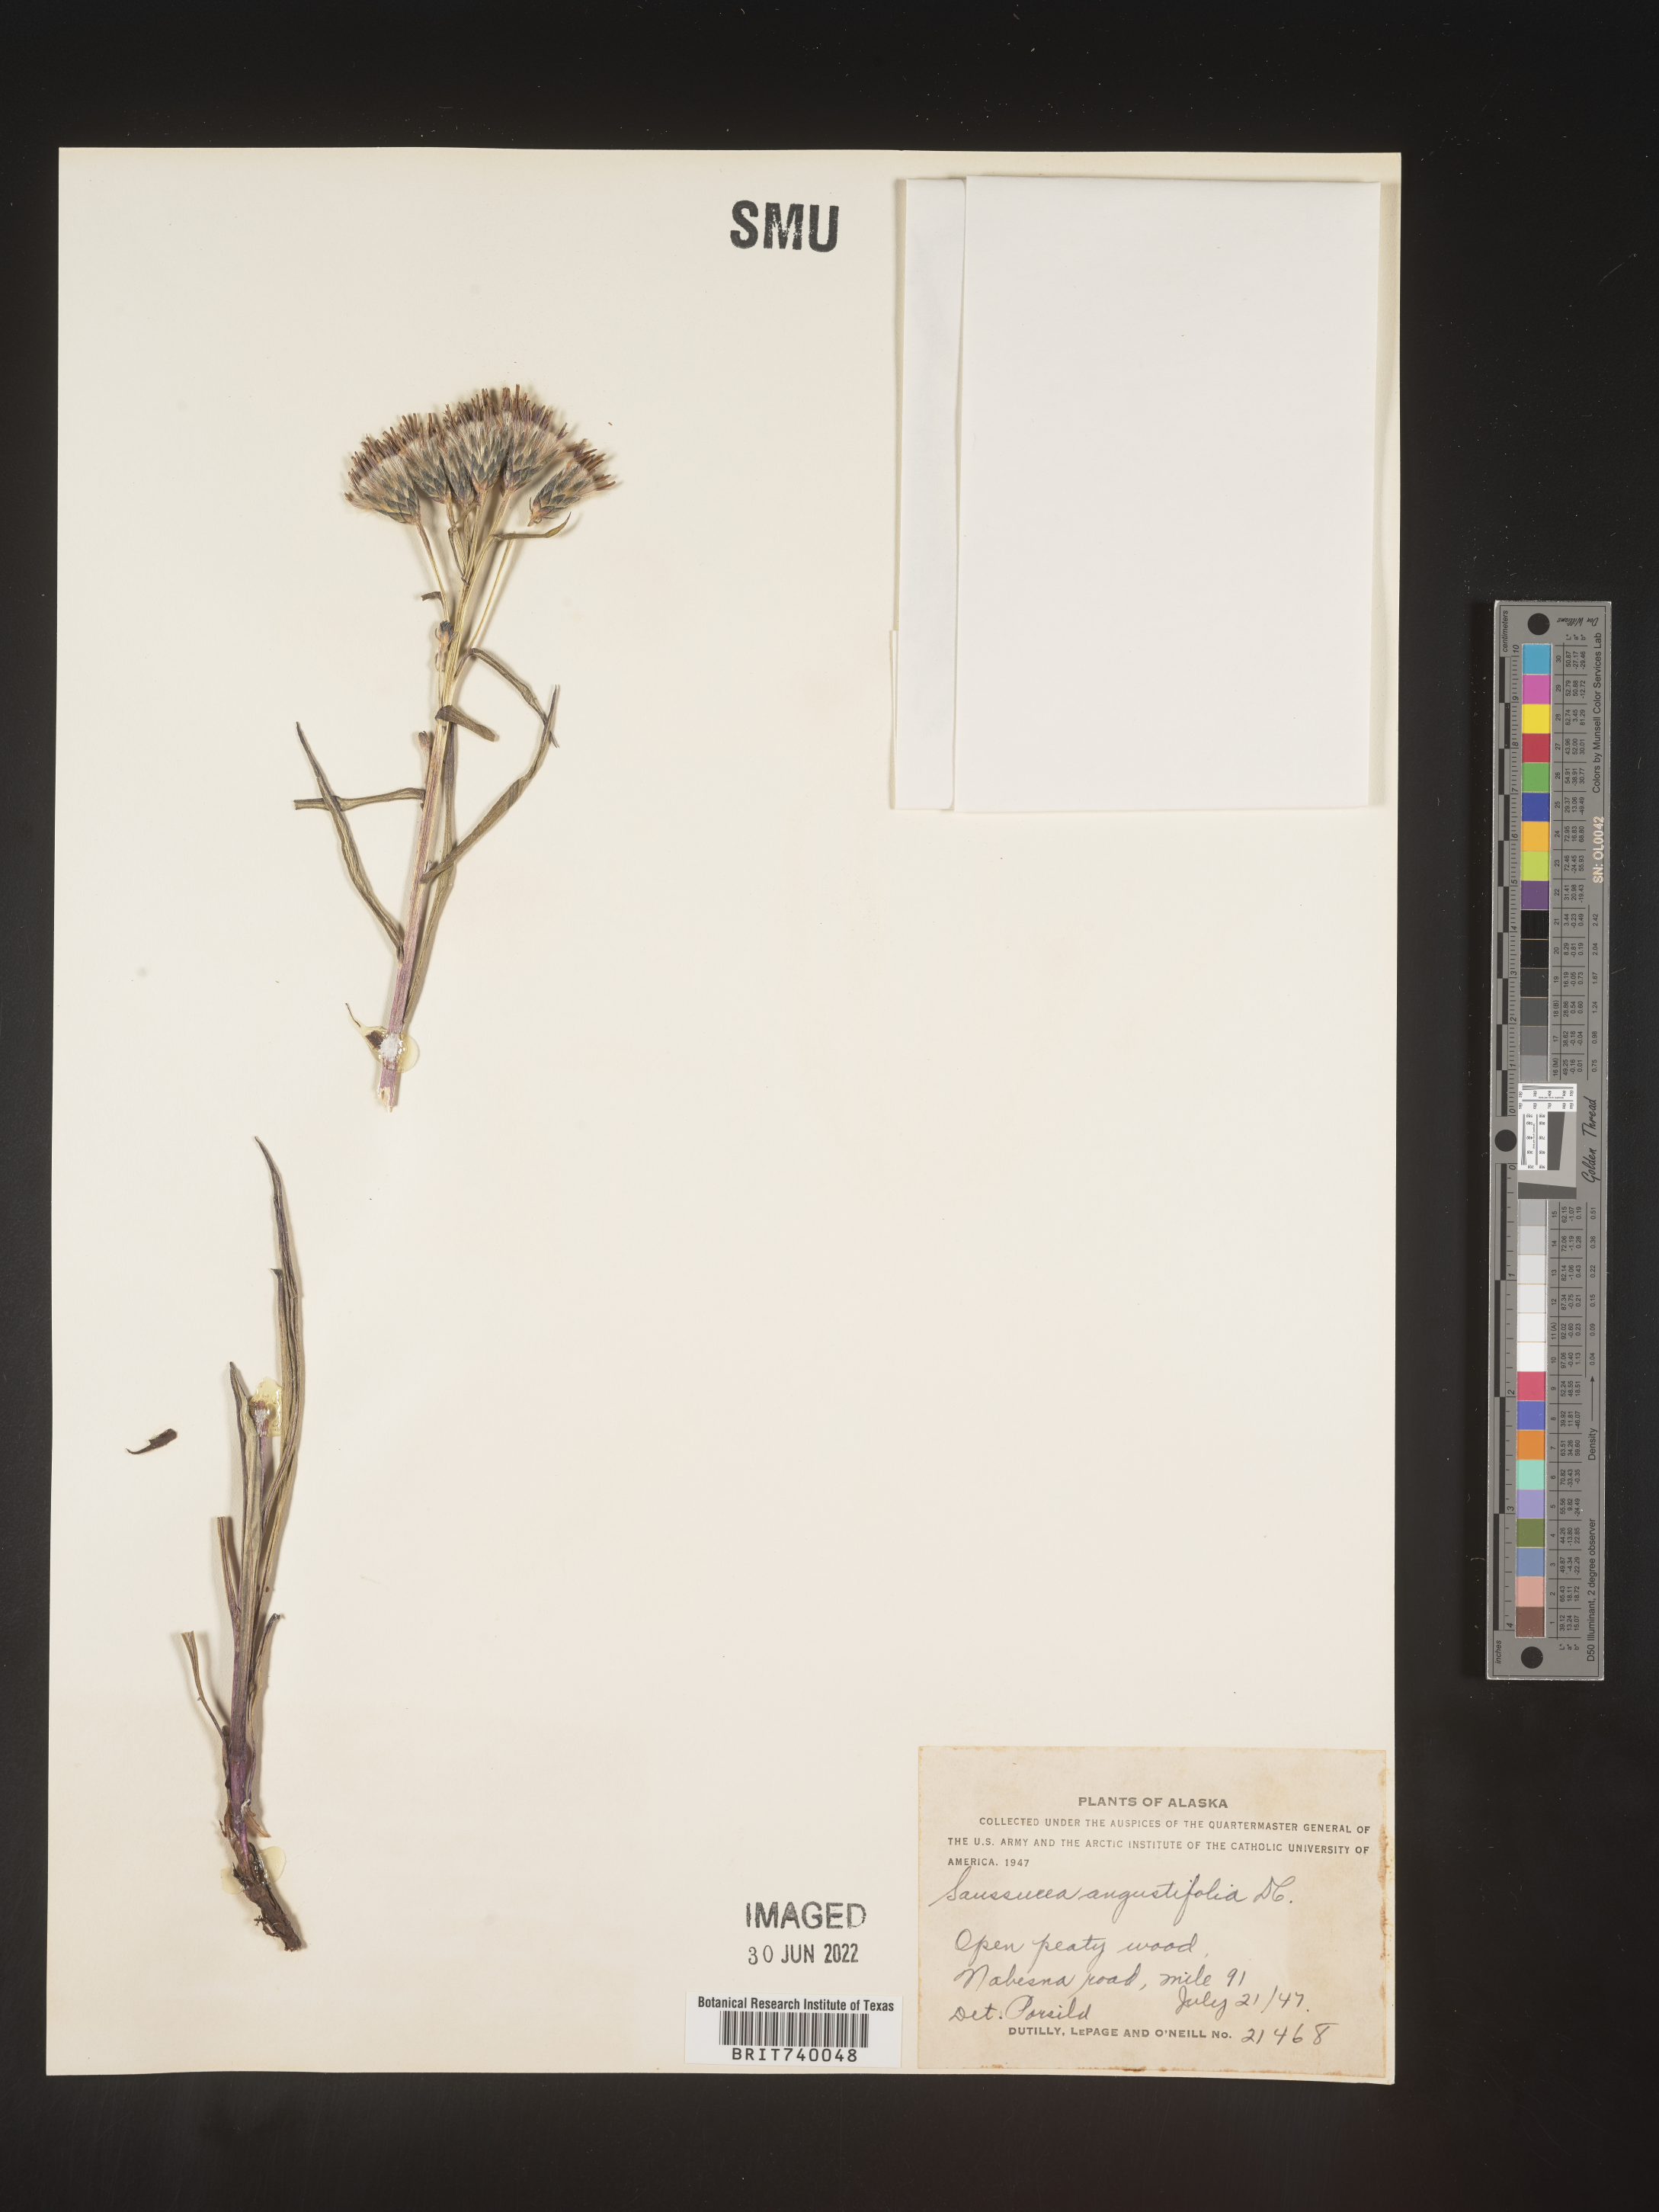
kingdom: Plantae
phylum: Tracheophyta
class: Magnoliopsida
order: Asterales
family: Asteraceae
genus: Saussurea
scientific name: Saussurea
